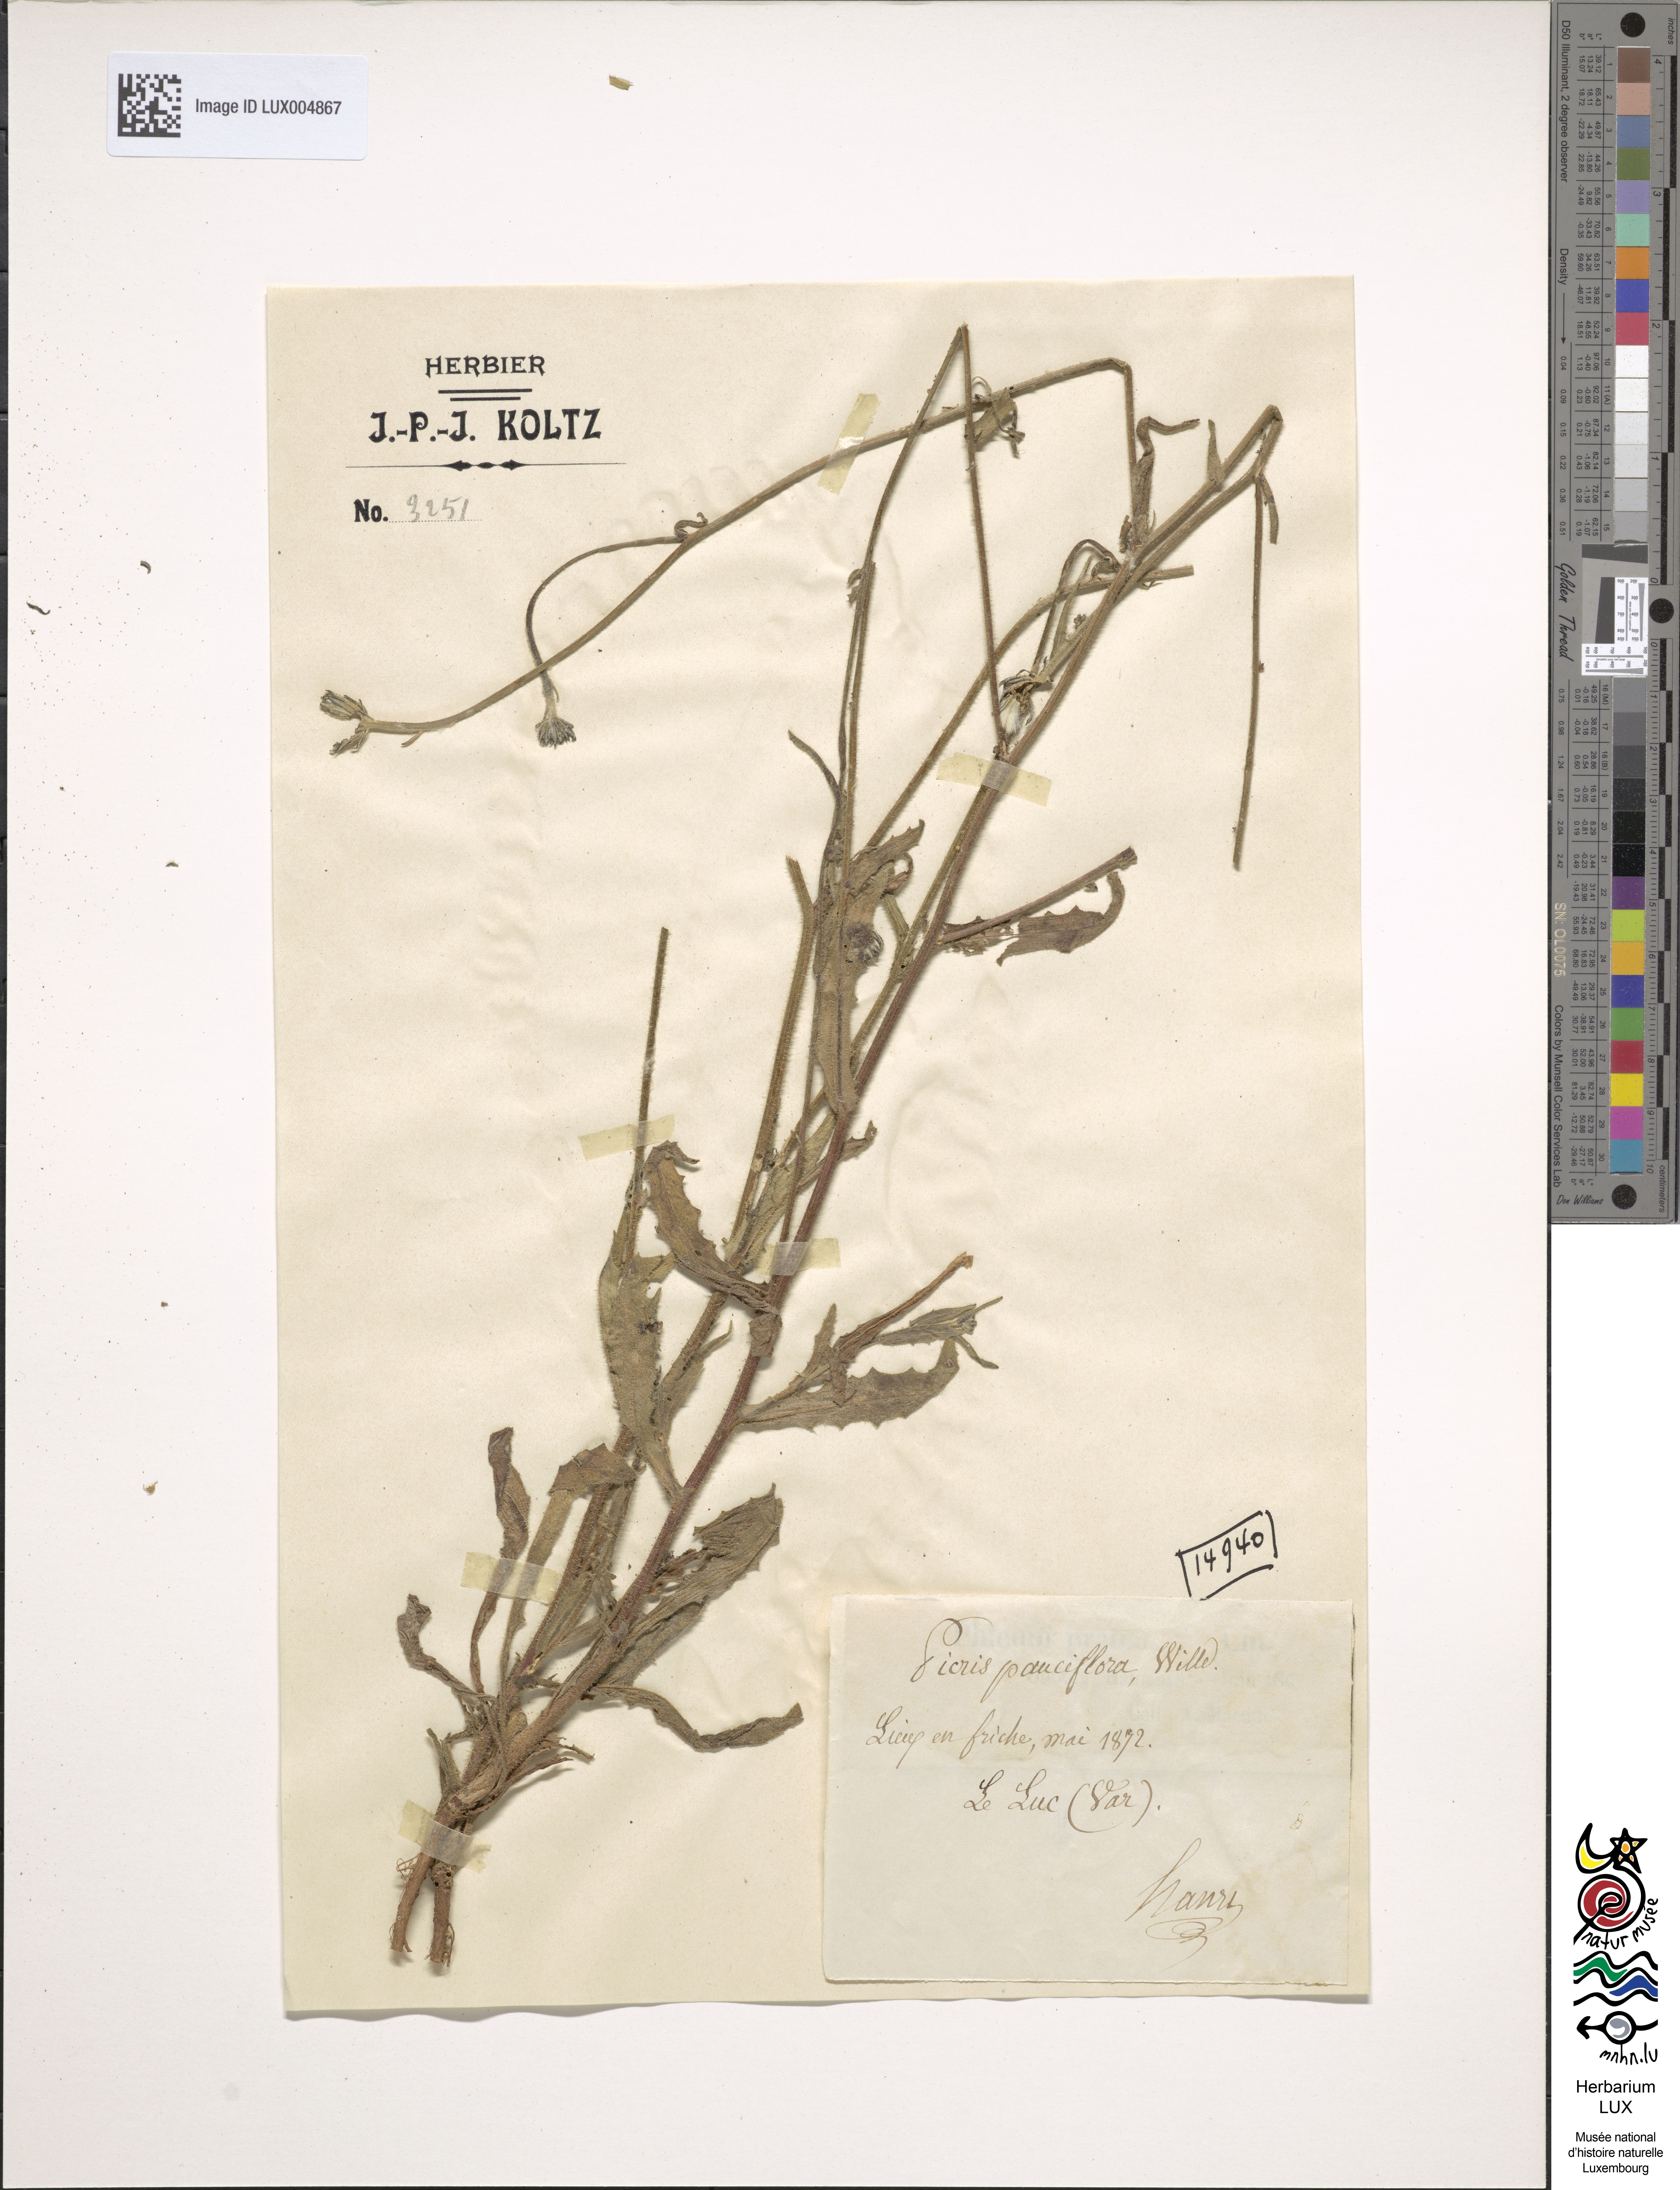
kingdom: Plantae
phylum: Tracheophyta
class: Magnoliopsida
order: Asterales
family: Asteraceae
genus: Picris
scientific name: Picris pauciflora
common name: Smallflower oxtongue
